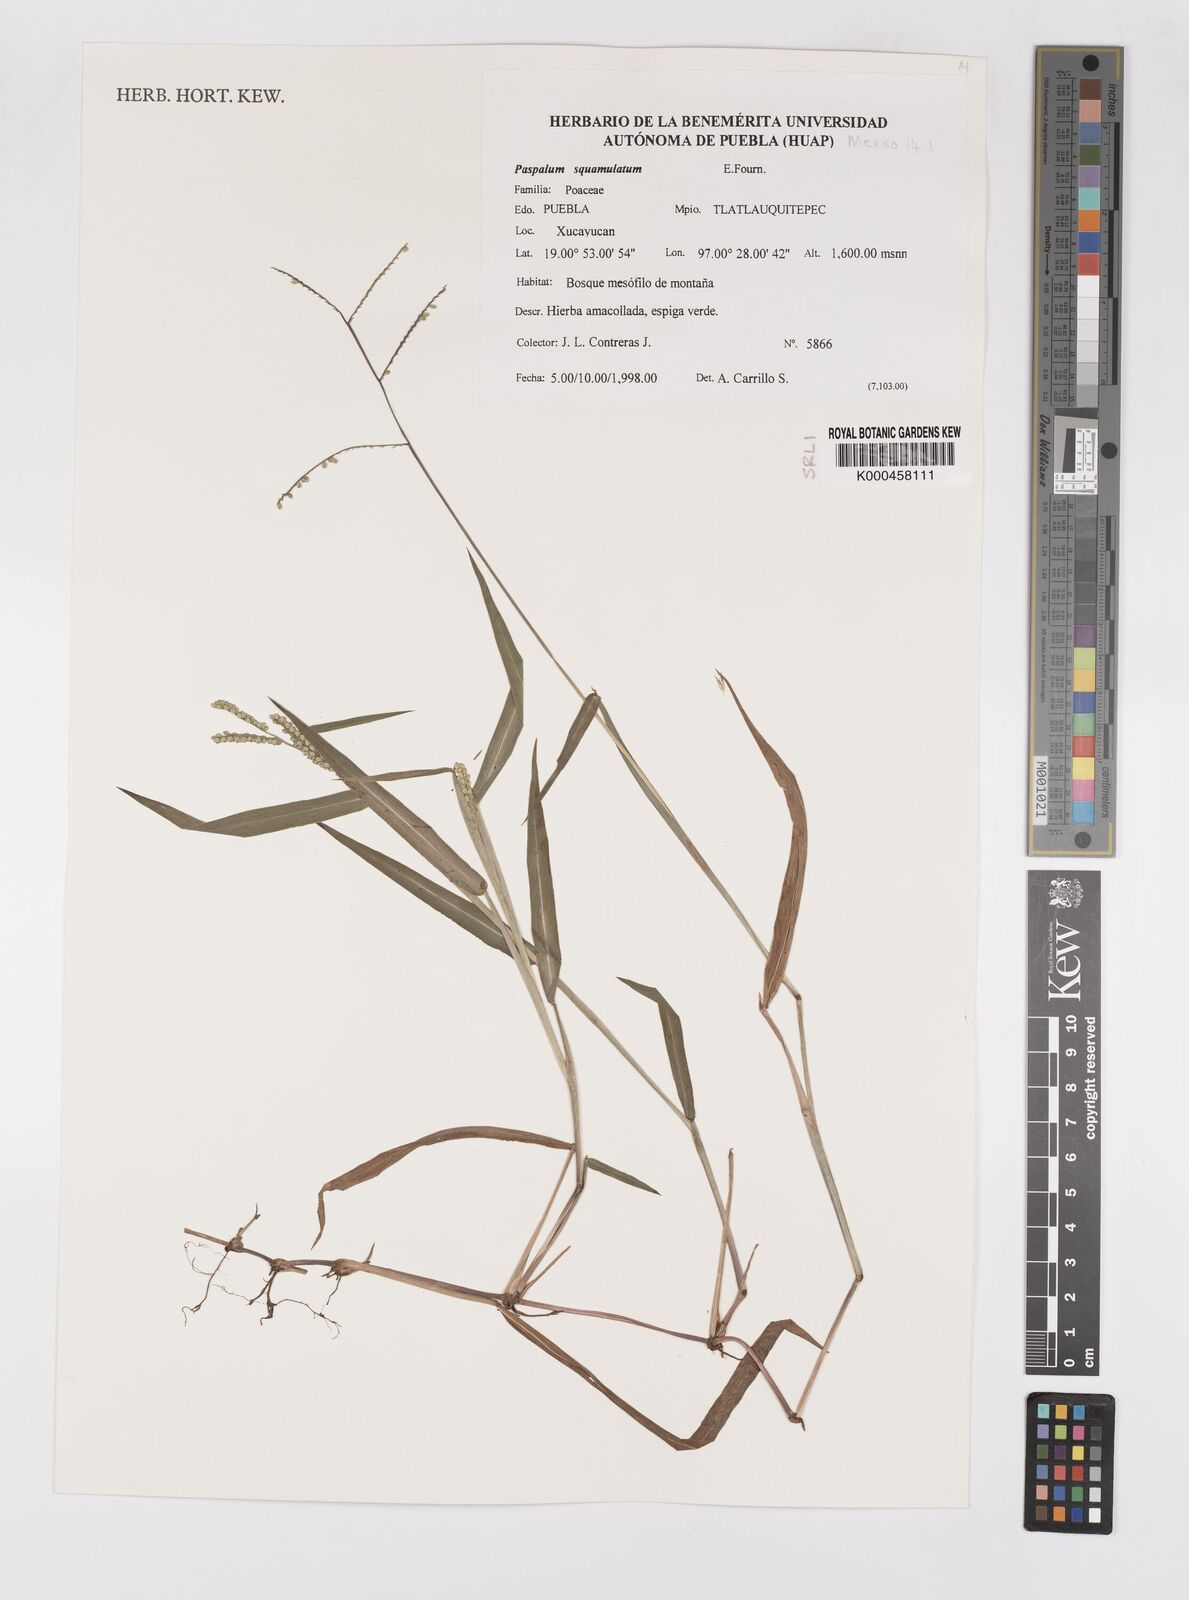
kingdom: Plantae
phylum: Tracheophyta
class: Liliopsida
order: Poales
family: Poaceae
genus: Paspalum
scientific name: Paspalum
